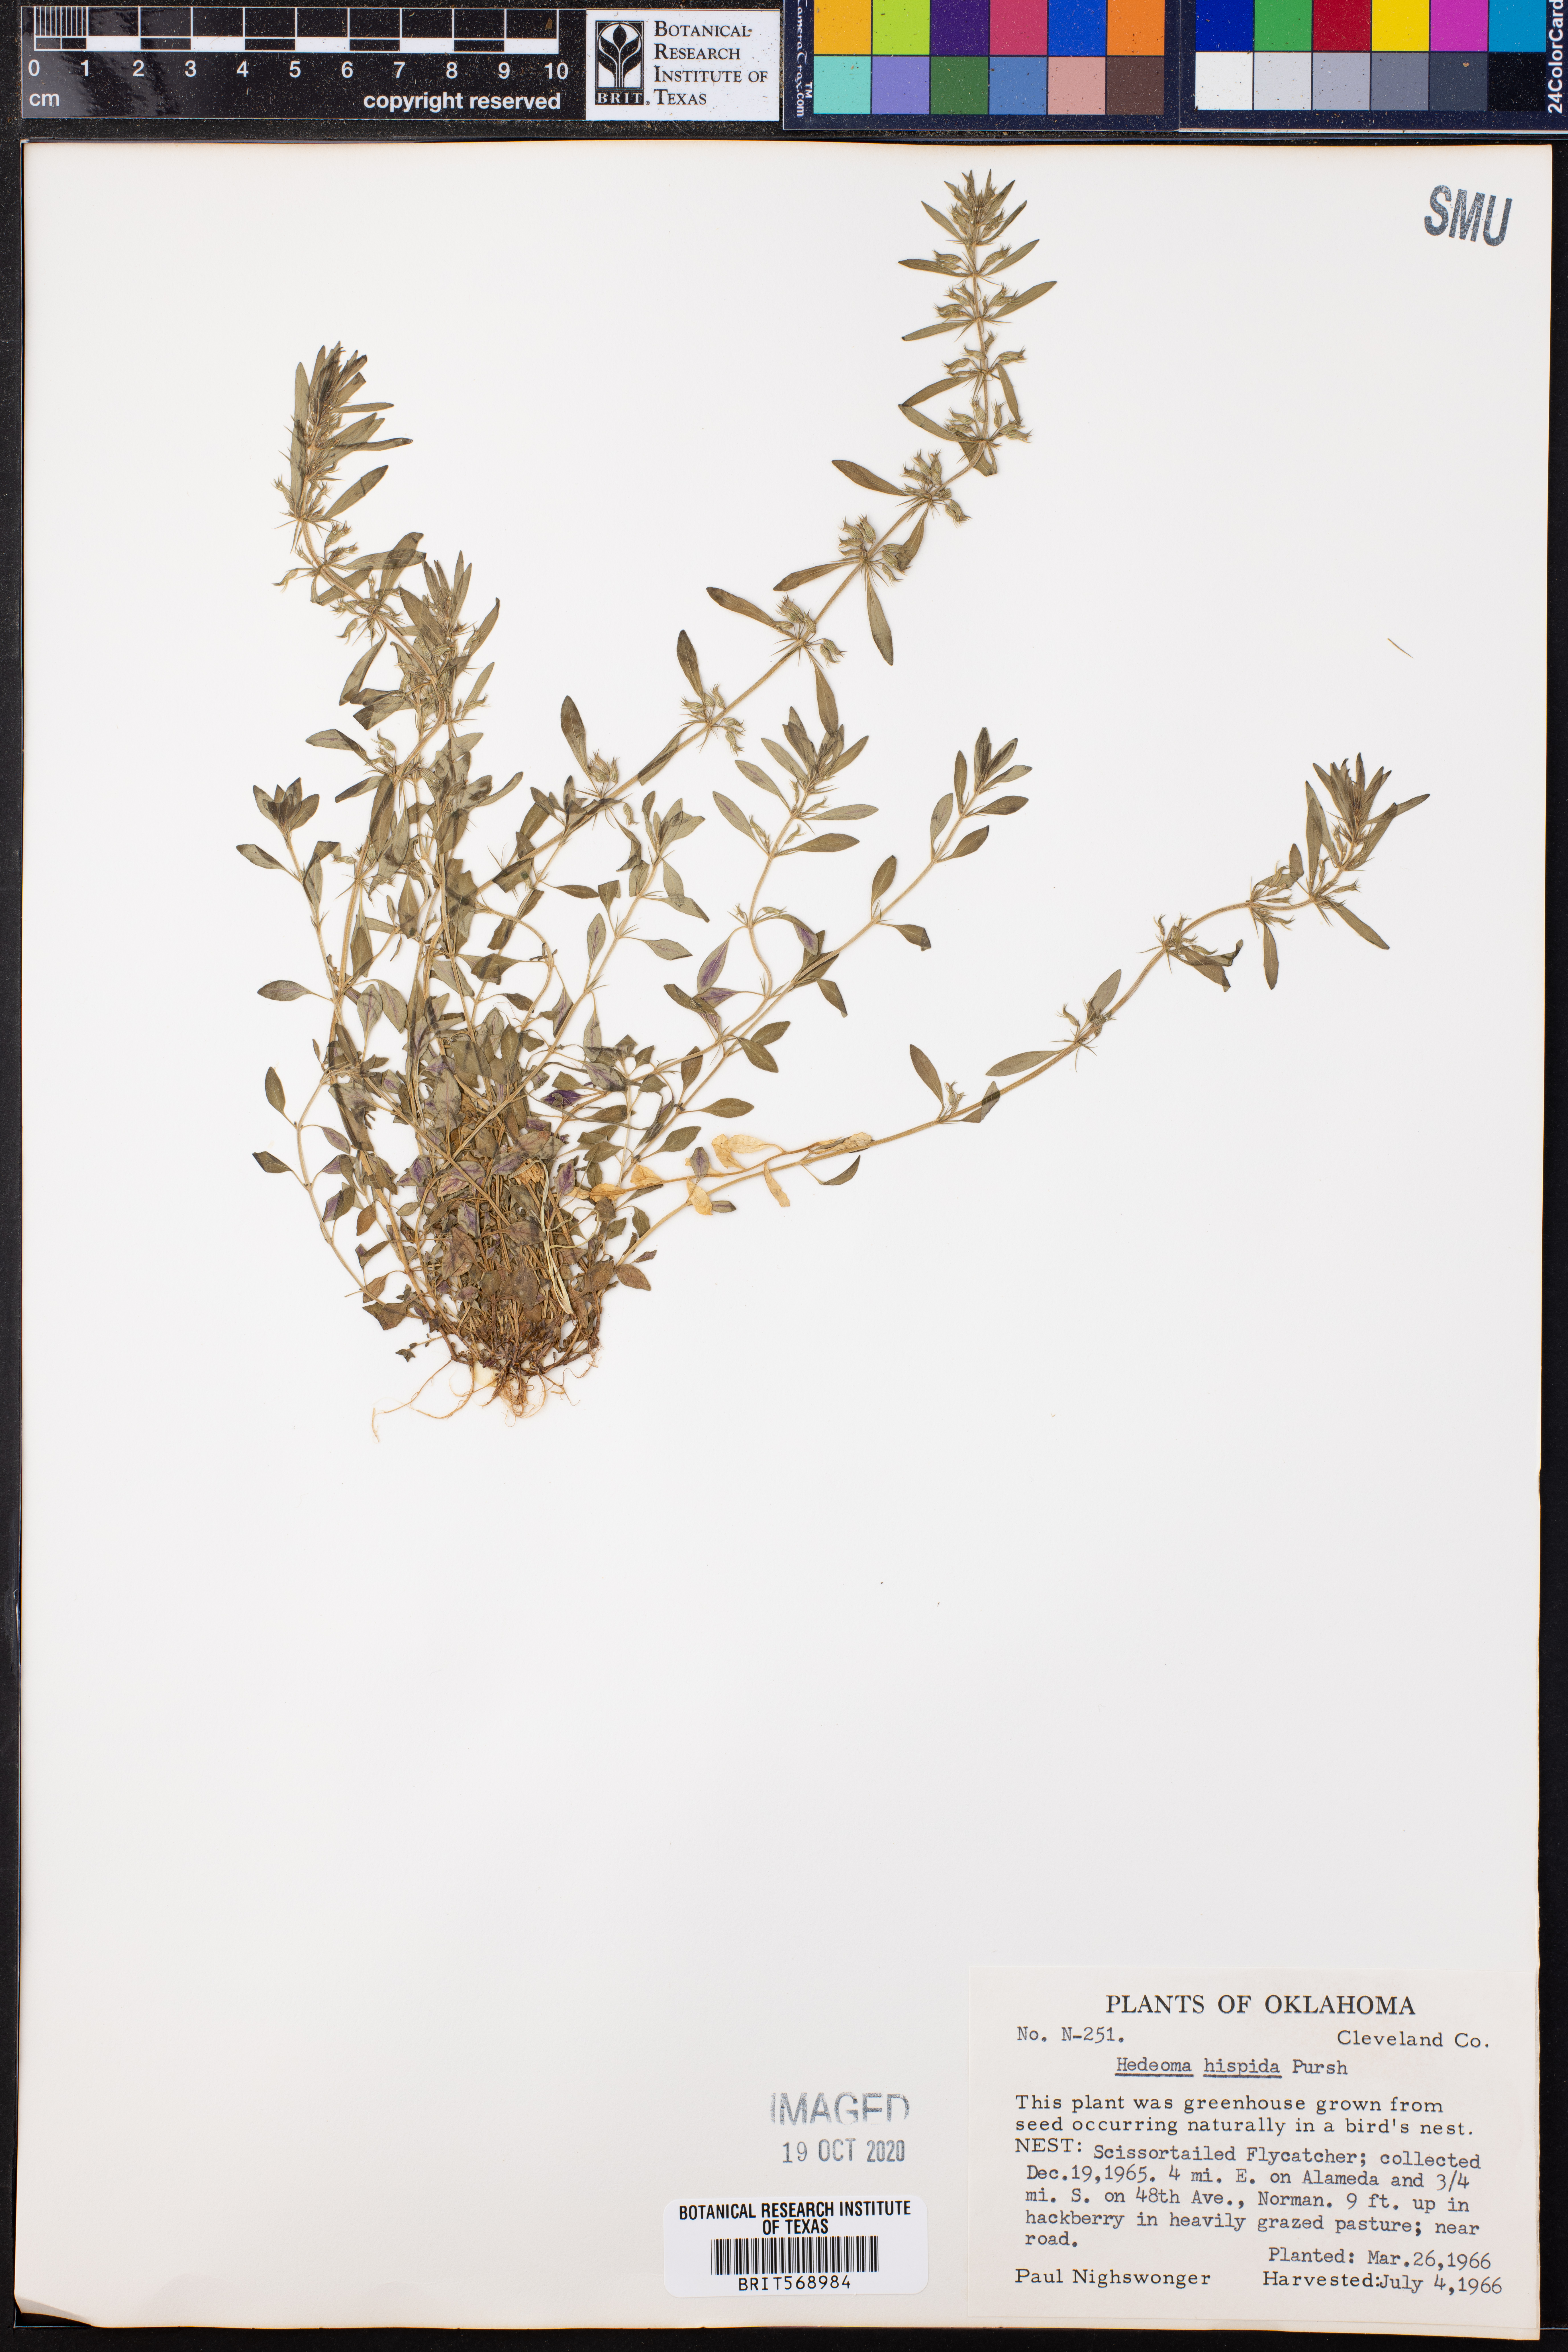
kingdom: Plantae
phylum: Tracheophyta
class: Magnoliopsida
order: Lamiales
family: Lamiaceae
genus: Hedeoma
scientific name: Hedeoma hispida
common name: Mock pennyroyal
